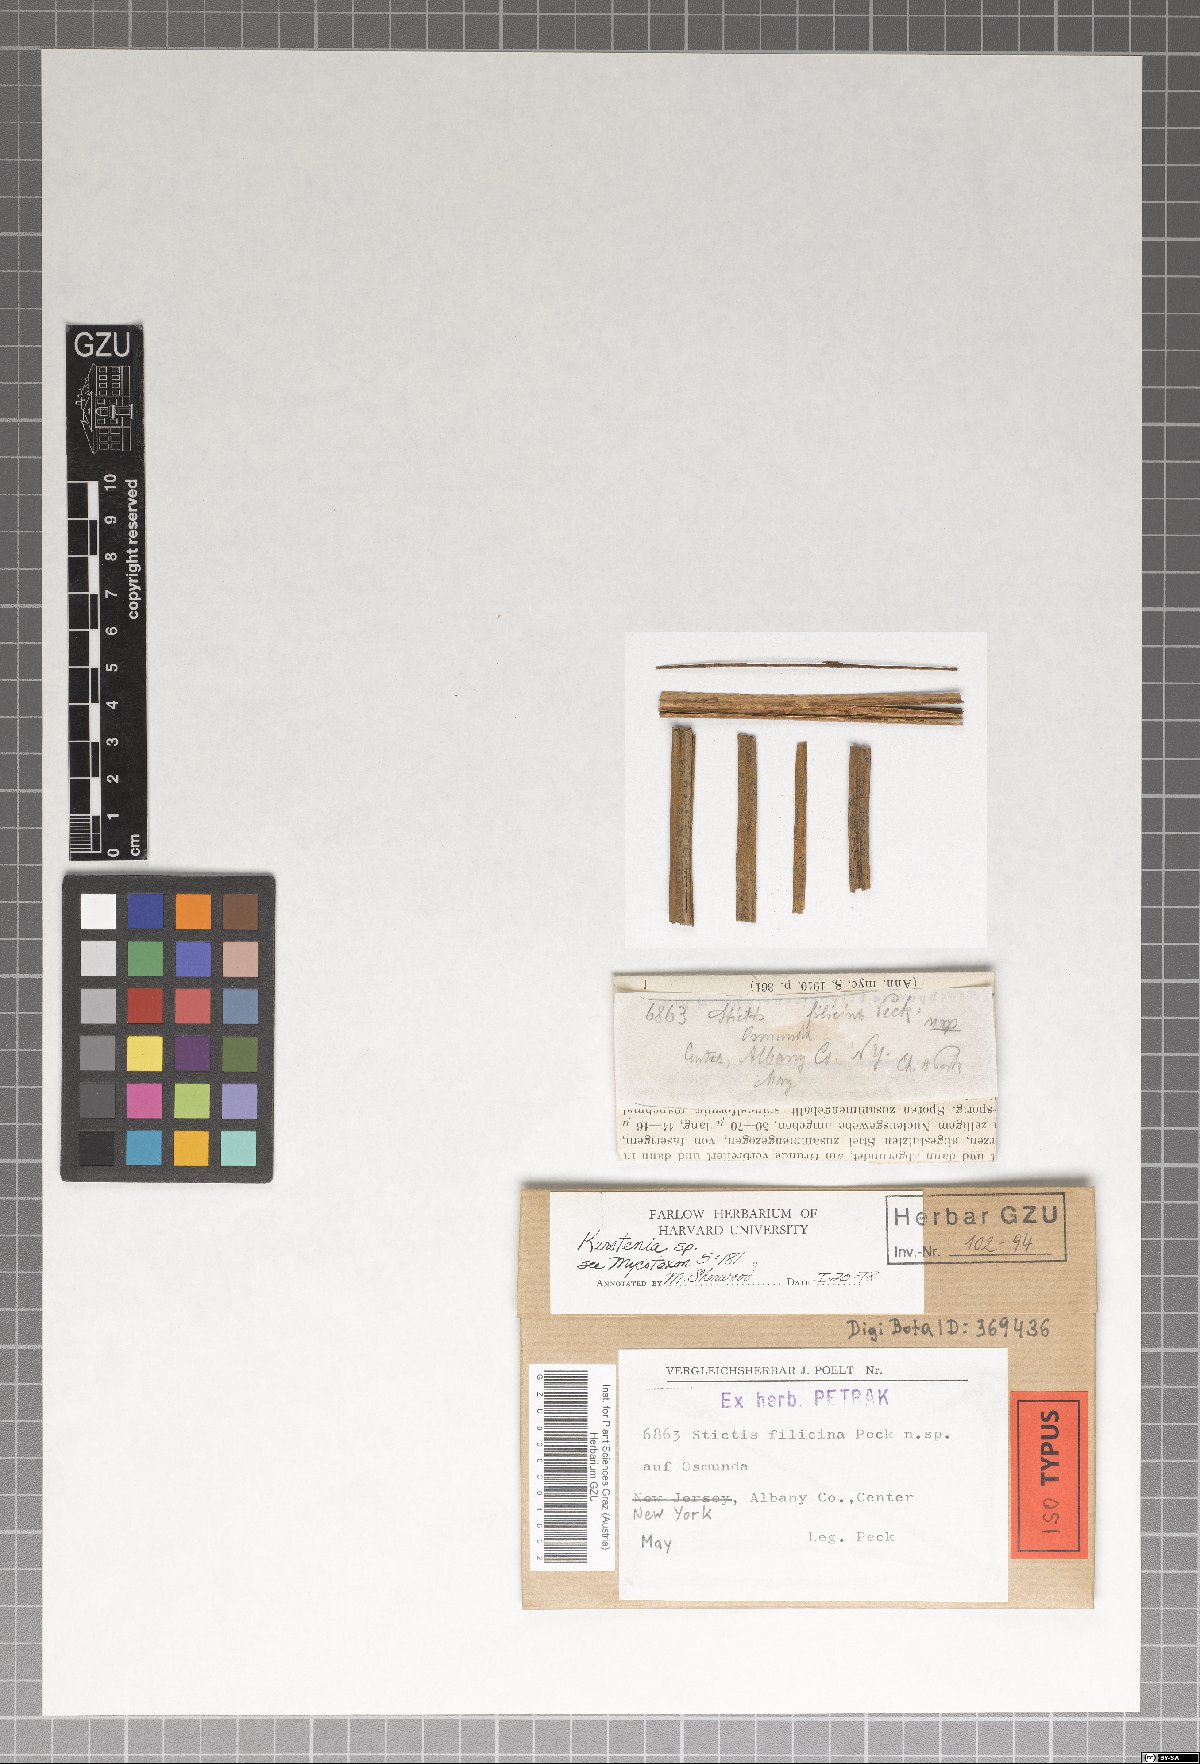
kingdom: Fungi
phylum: Ascomycota
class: Lecanoromycetes
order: Ostropales
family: Stictidaceae
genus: Stictis
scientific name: Stictis
